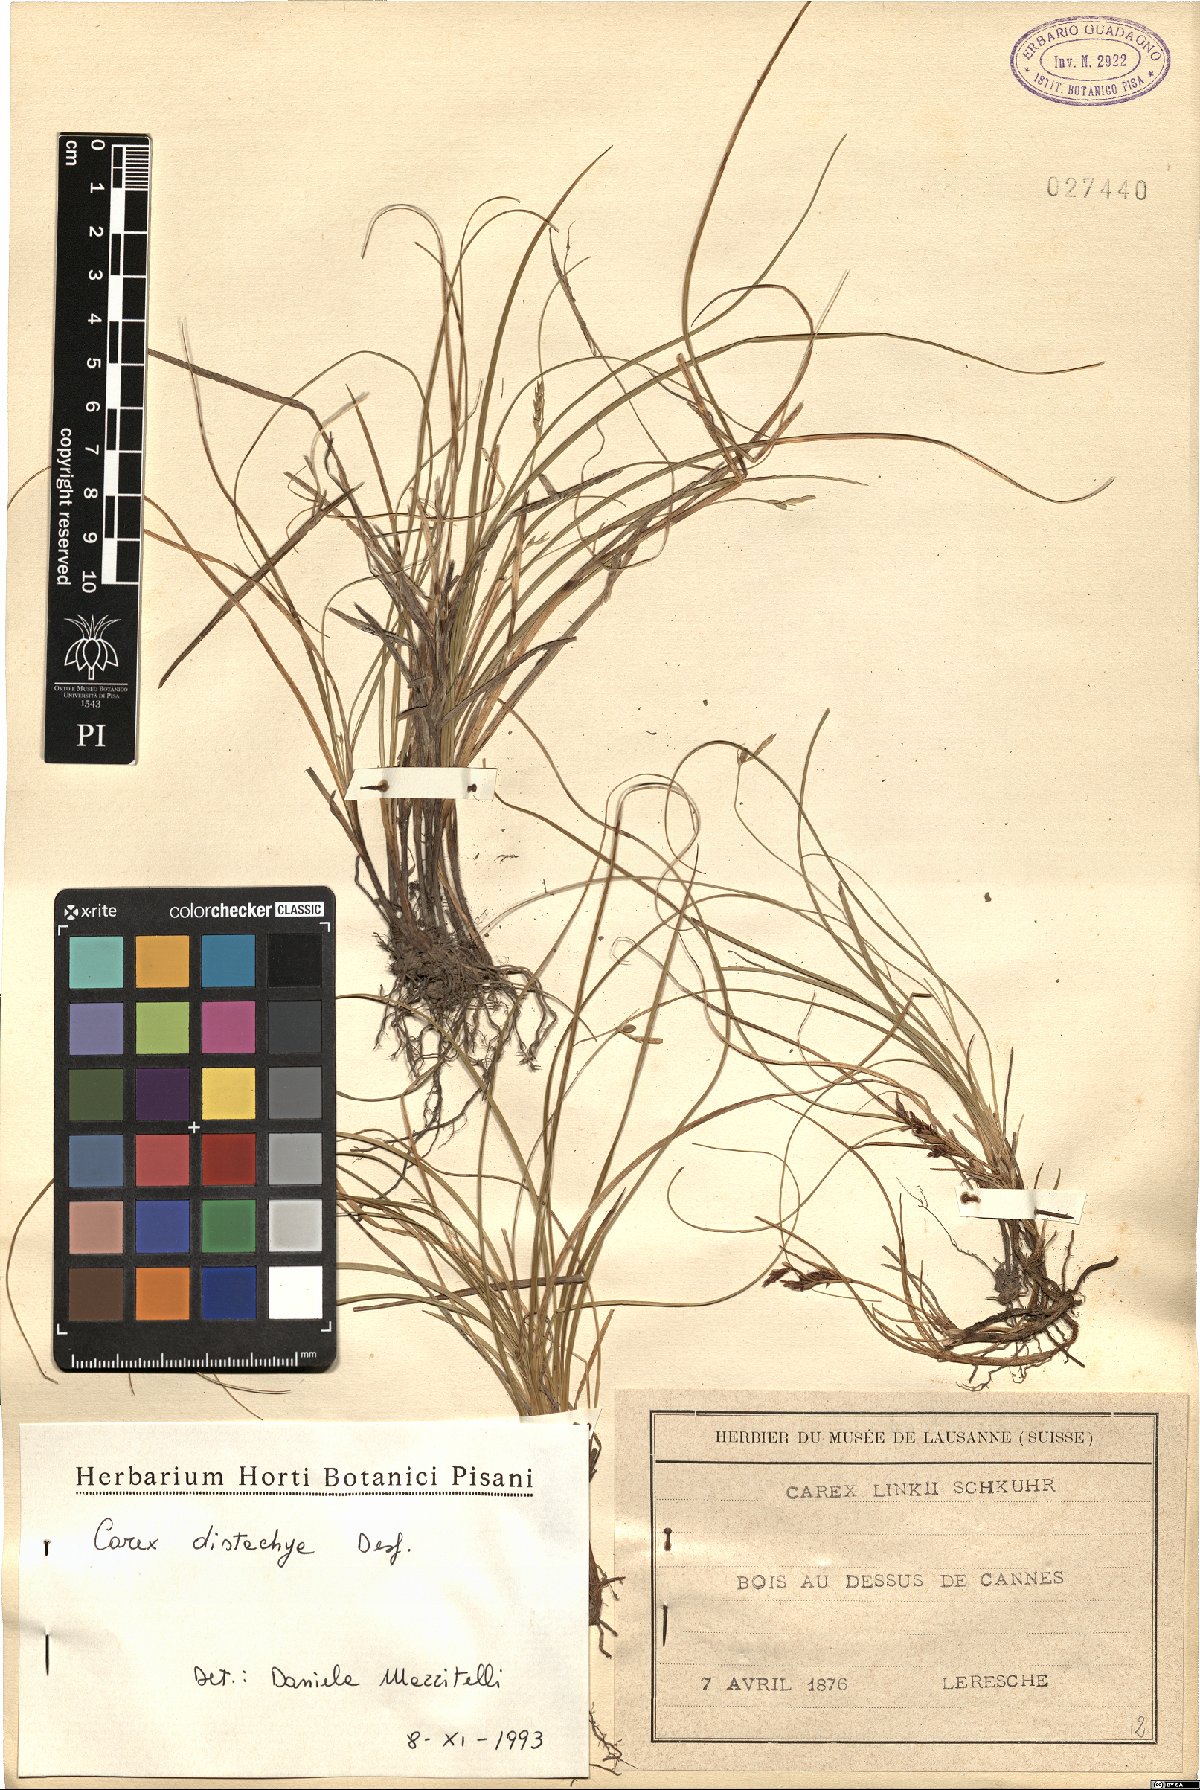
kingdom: Plantae
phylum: Tracheophyta
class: Liliopsida
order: Poales
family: Cyperaceae
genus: Carex
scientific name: Carex distachya
